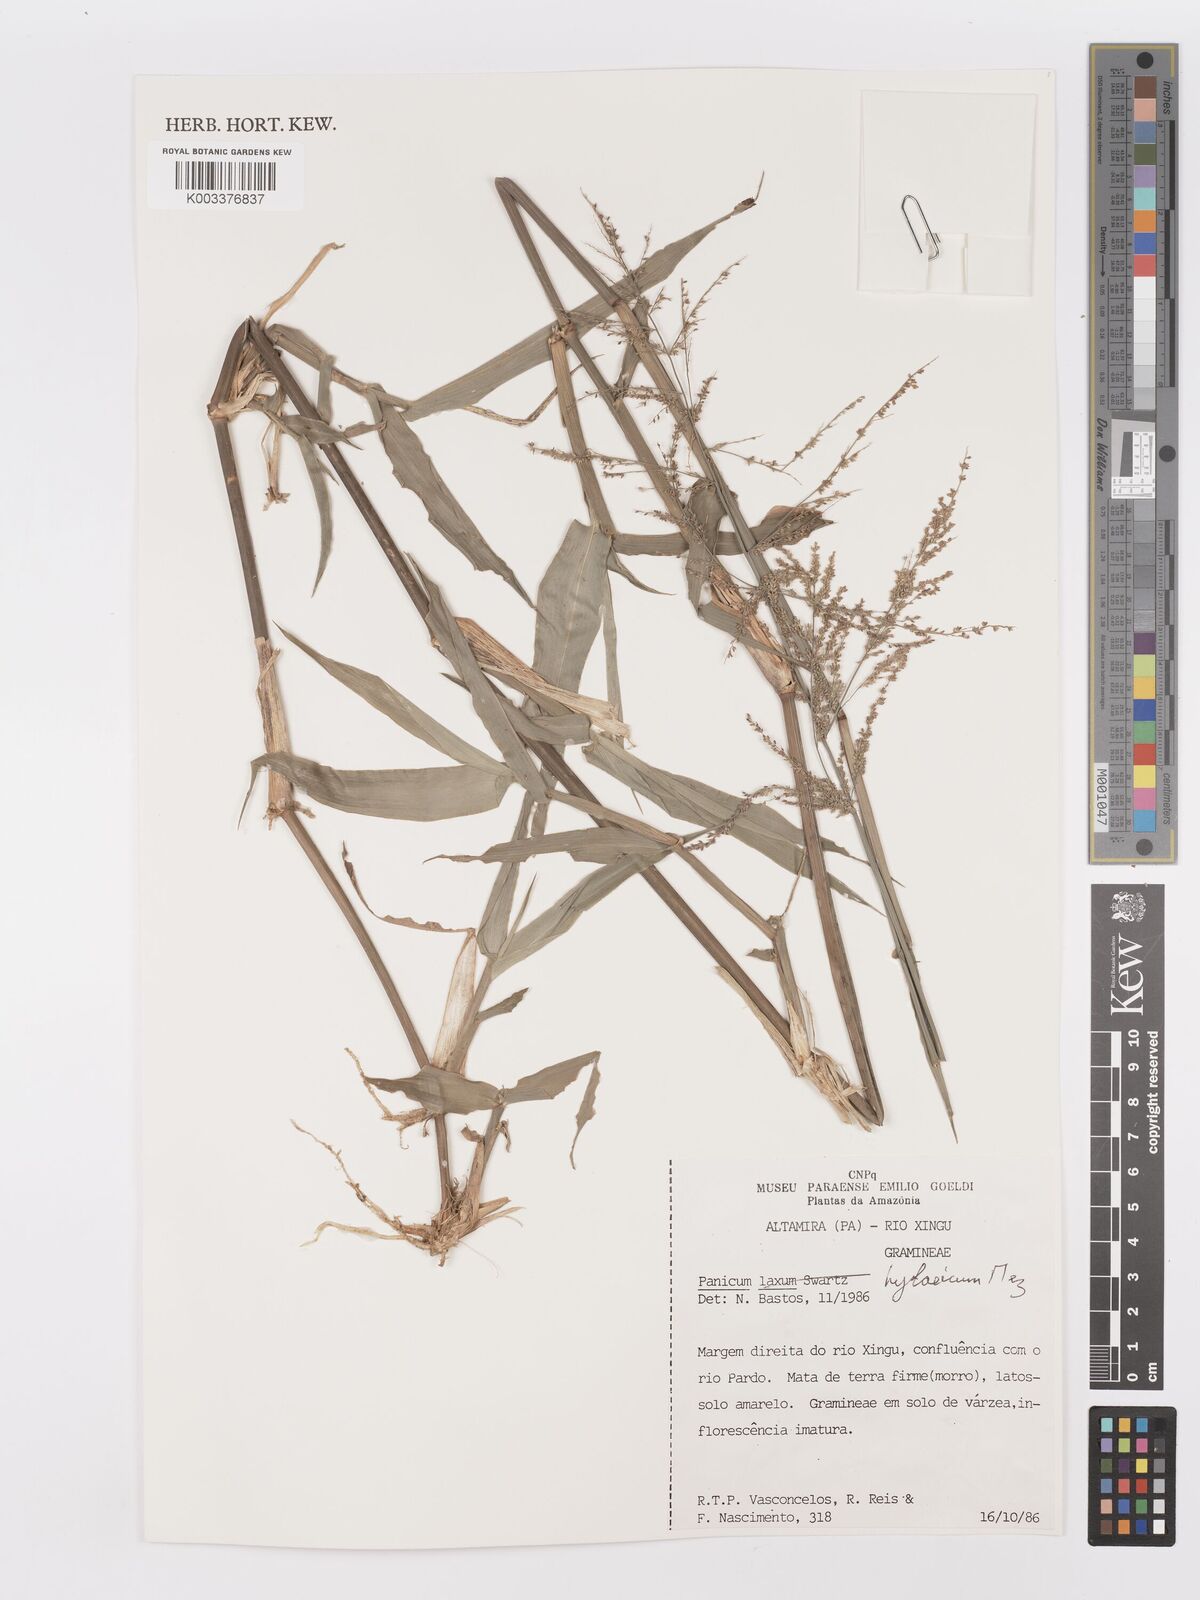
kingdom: Plantae
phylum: Tracheophyta
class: Liliopsida
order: Poales
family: Poaceae
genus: Rugoloa
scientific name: Rugoloa hylaeica
